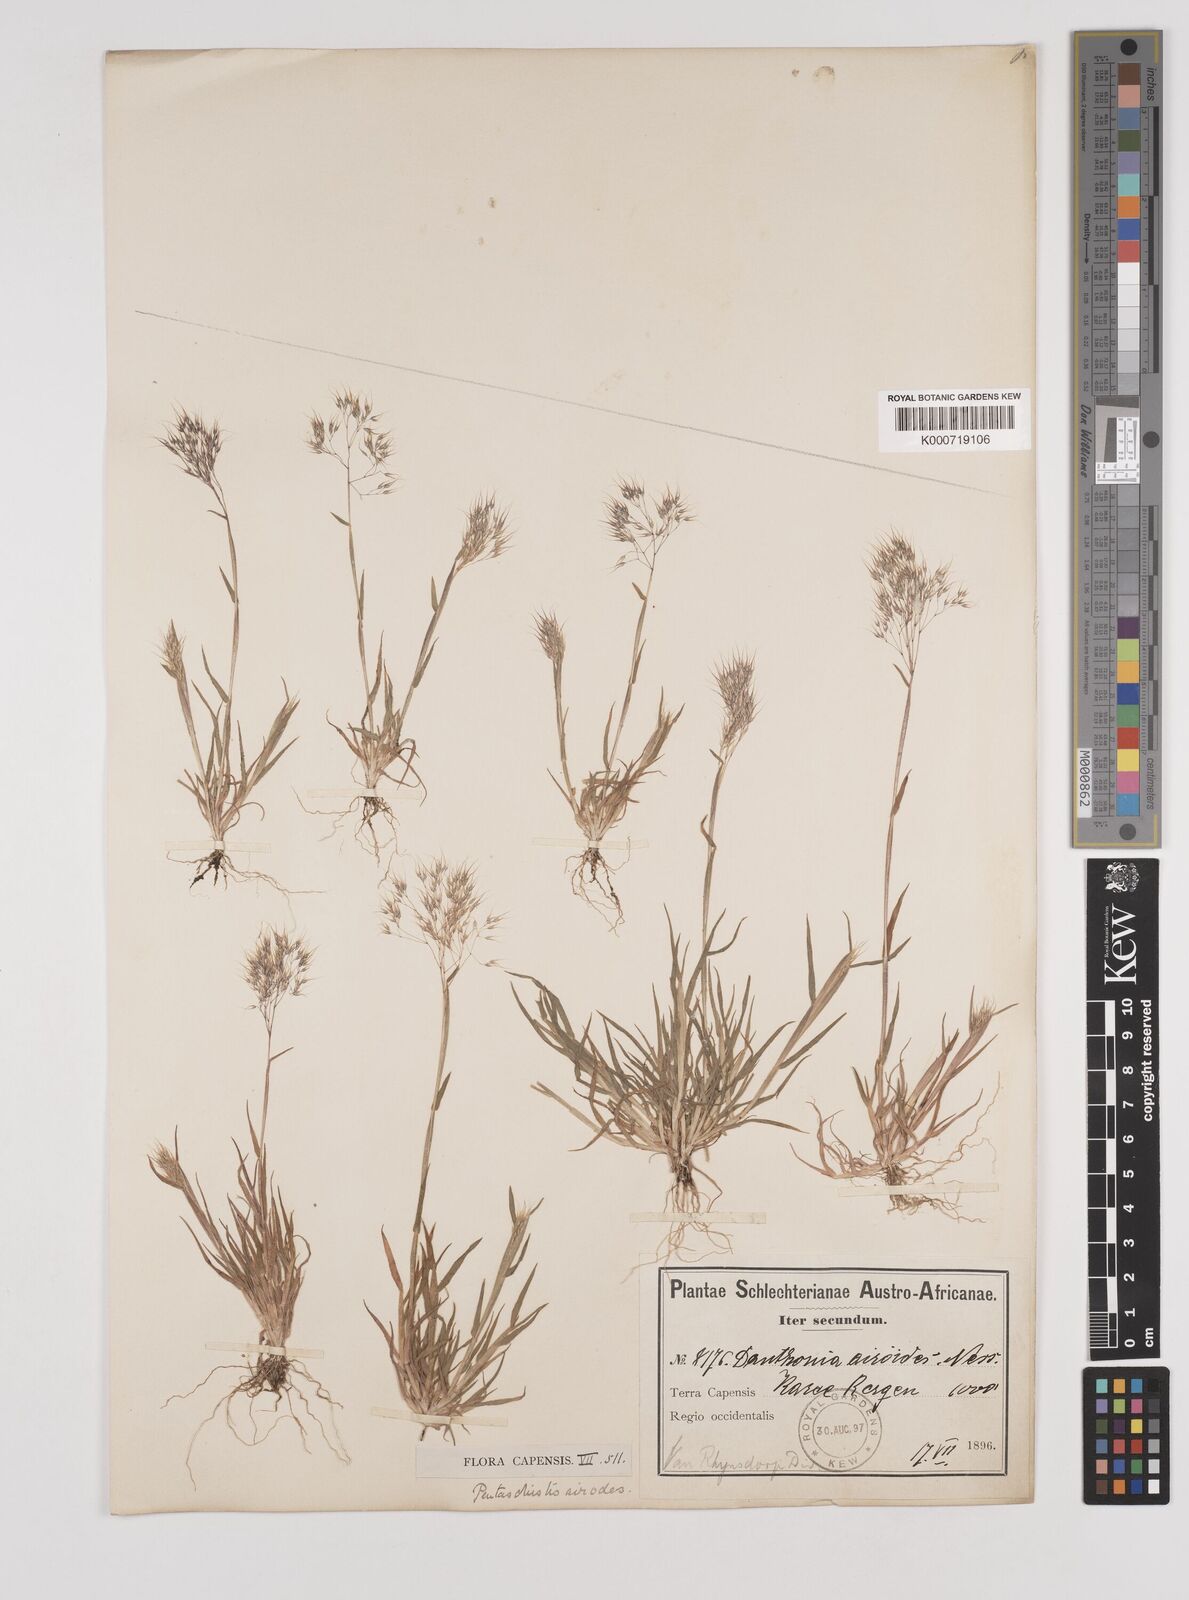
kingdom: Plantae
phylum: Tracheophyta
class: Liliopsida
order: Poales
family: Poaceae
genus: Pentameris
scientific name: Pentameris airoides
